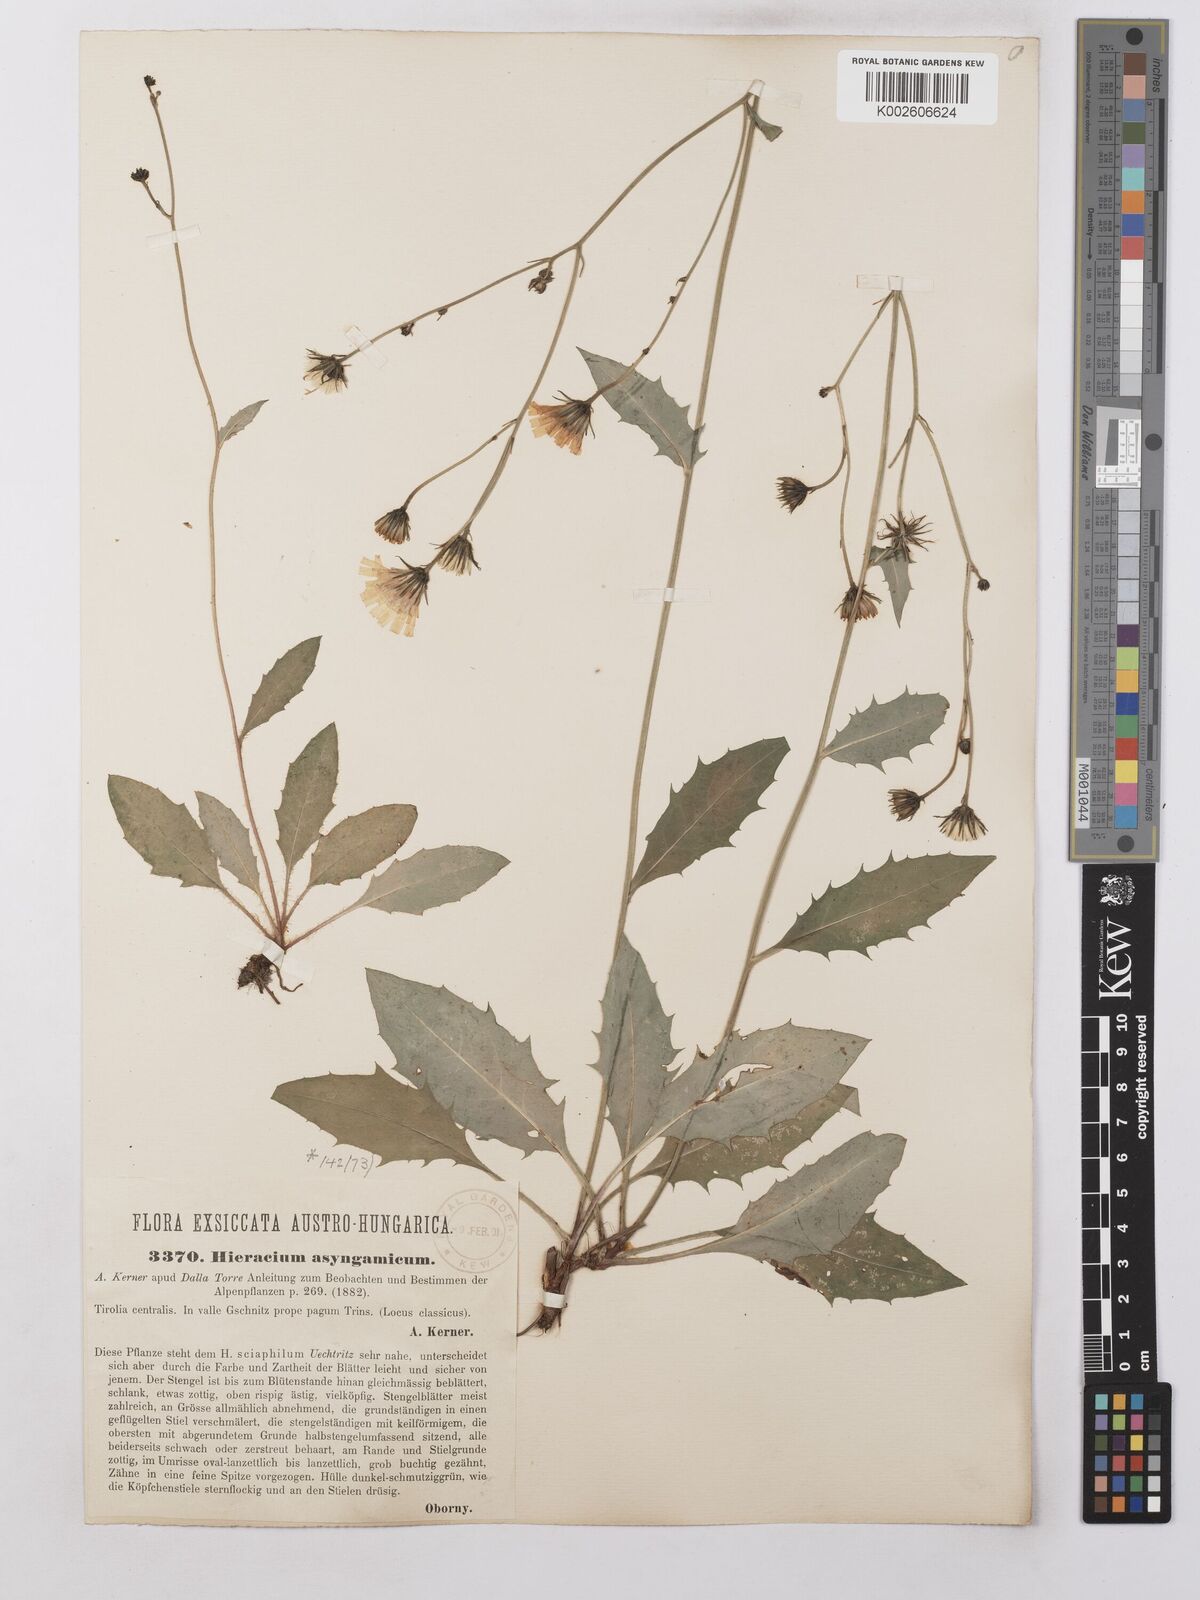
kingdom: Plantae
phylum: Tracheophyta
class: Magnoliopsida
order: Asterales
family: Asteraceae
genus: Hieracium
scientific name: Hieracium lachenalii
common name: Common hawkweed
